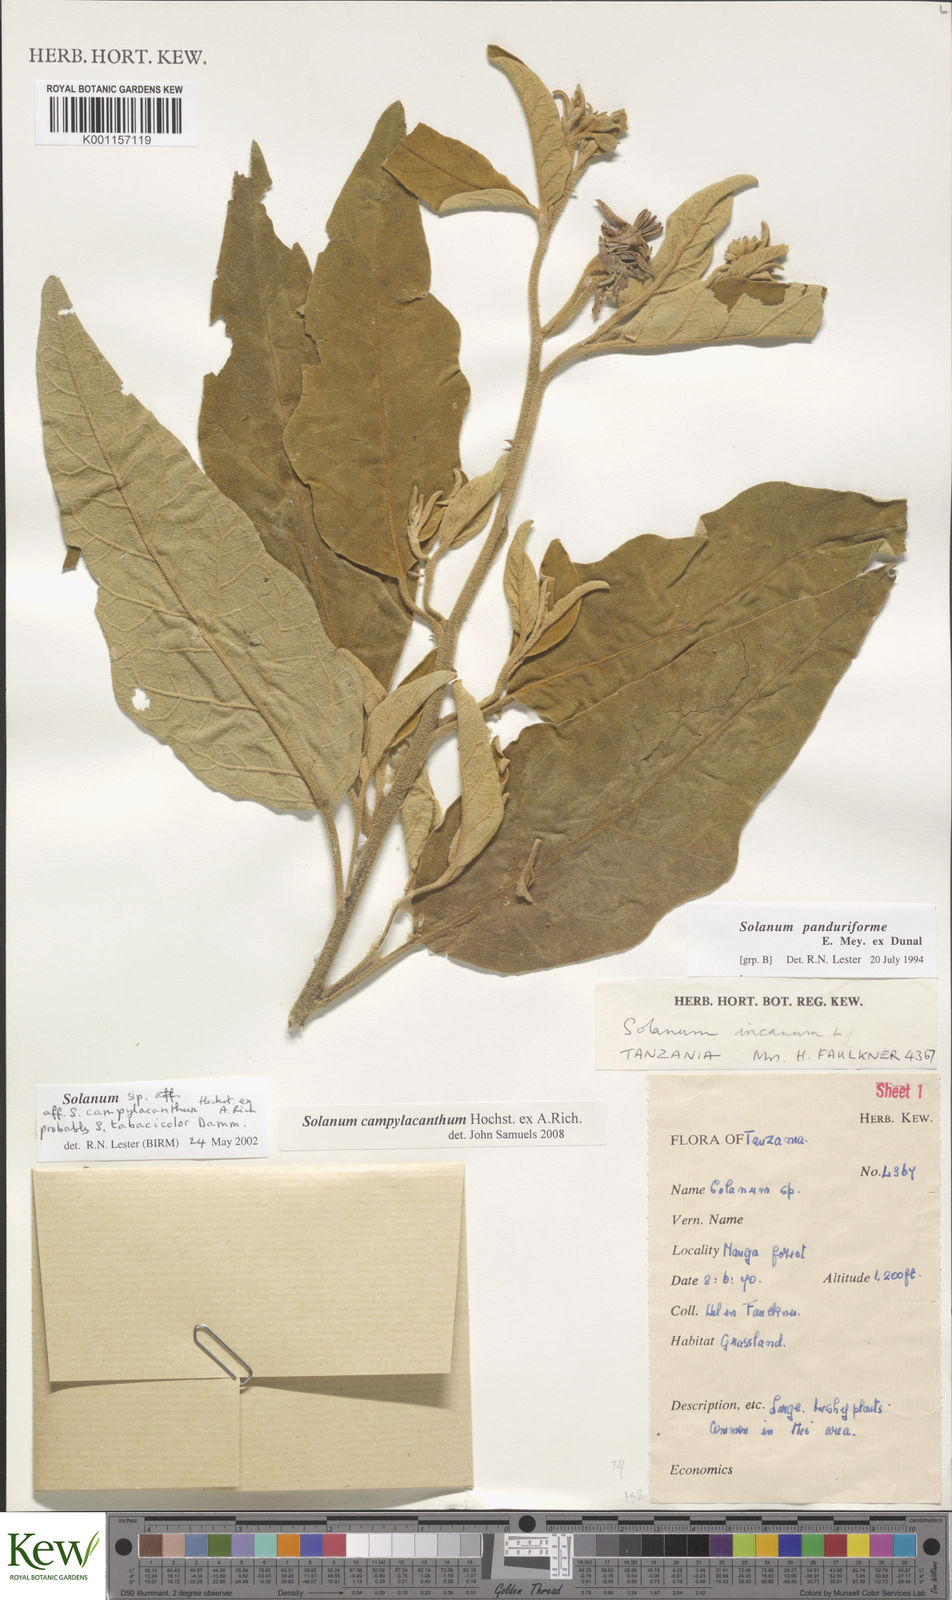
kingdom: Plantae
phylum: Tracheophyta
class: Magnoliopsida
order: Solanales
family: Solanaceae
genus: Solanum
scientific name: Solanum campylacanthum
